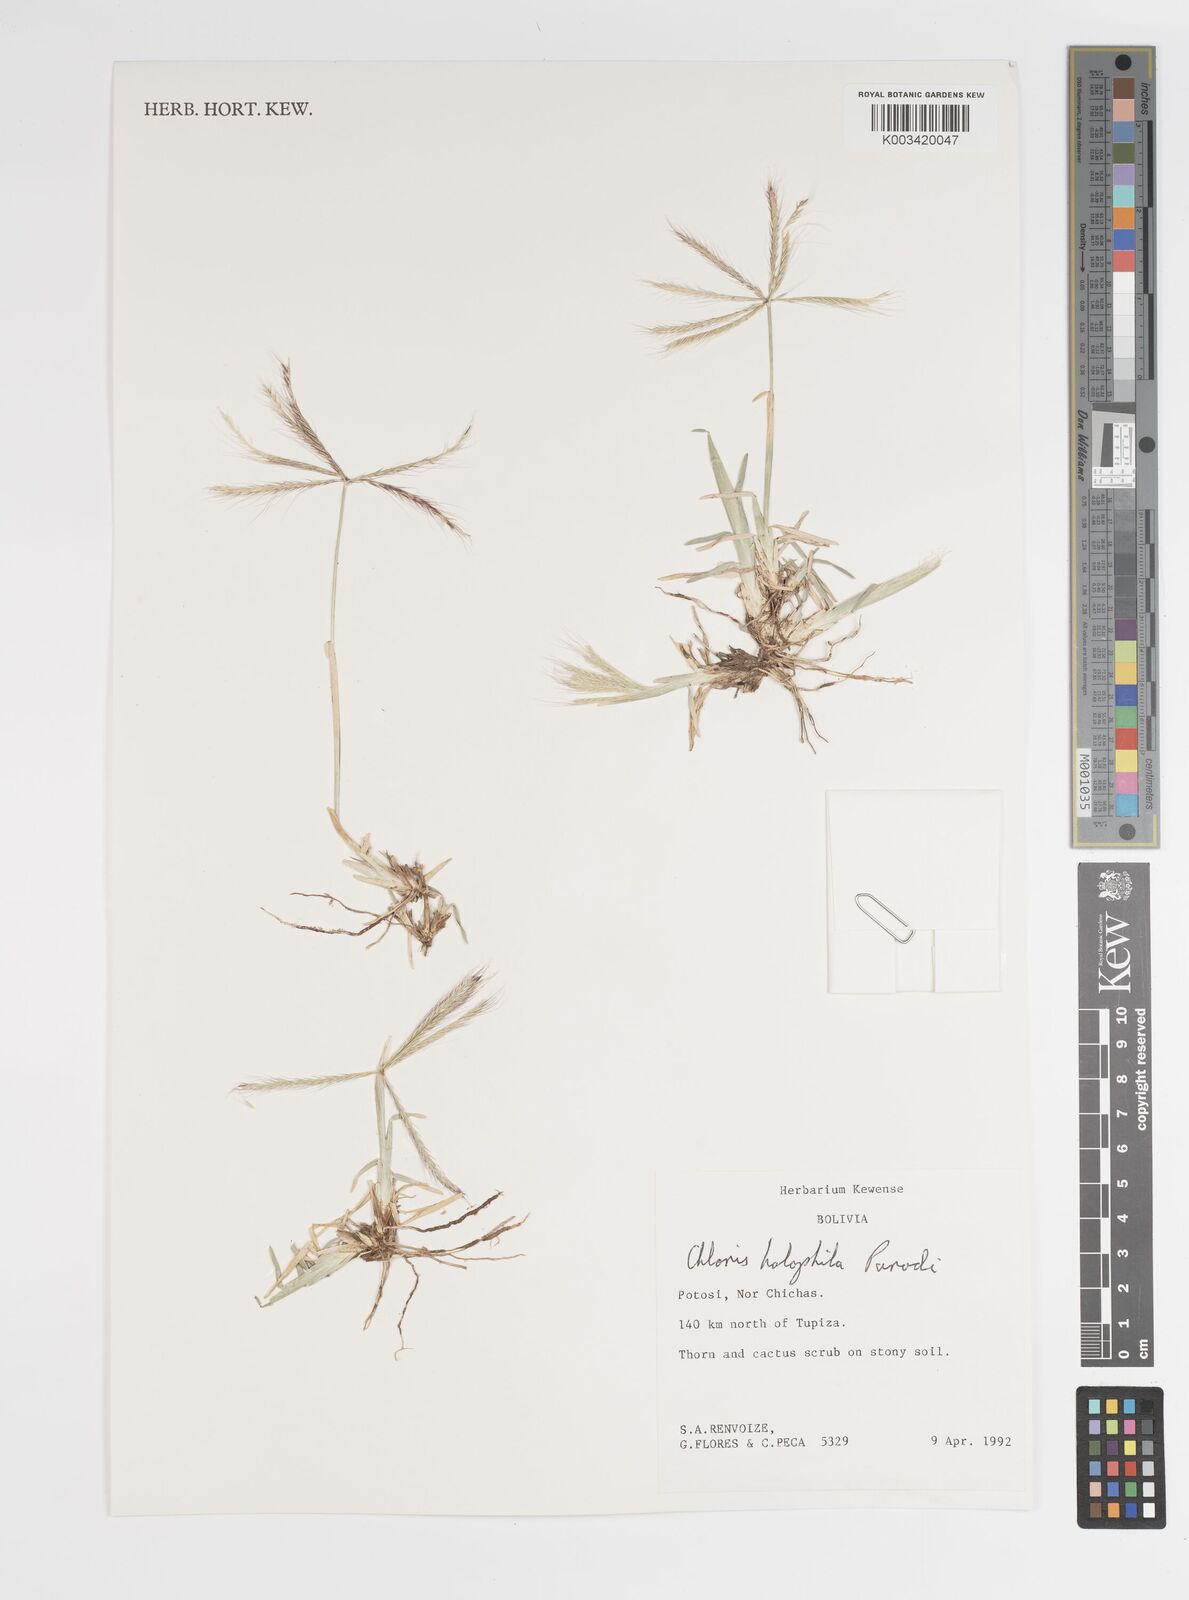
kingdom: Plantae
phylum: Tracheophyta
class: Liliopsida
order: Poales
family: Poaceae
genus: Chloris
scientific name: Chloris halophila
